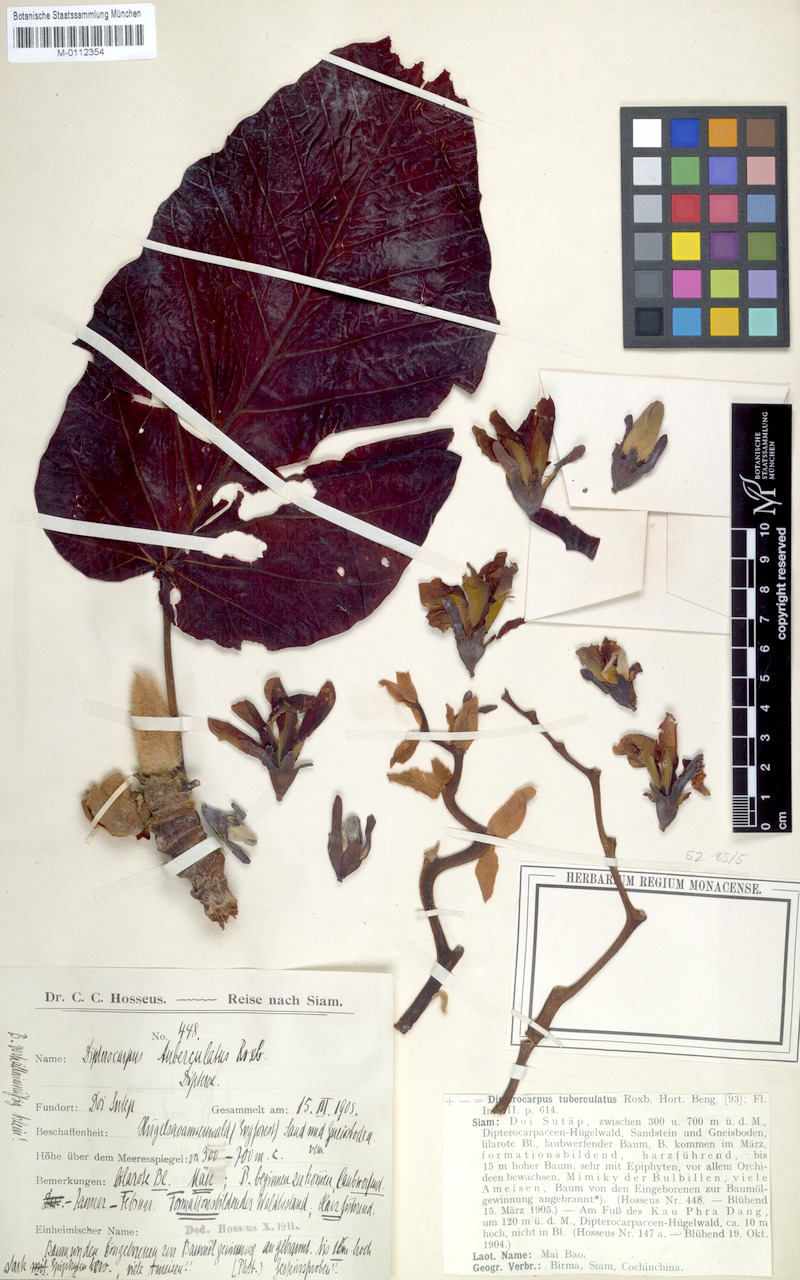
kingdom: Plantae
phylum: Tracheophyta
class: Magnoliopsida
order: Malvales
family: Dipterocarpaceae
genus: Dipterocarpus
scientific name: Dipterocarpus tuberculatus
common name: Eng gurjuntree
